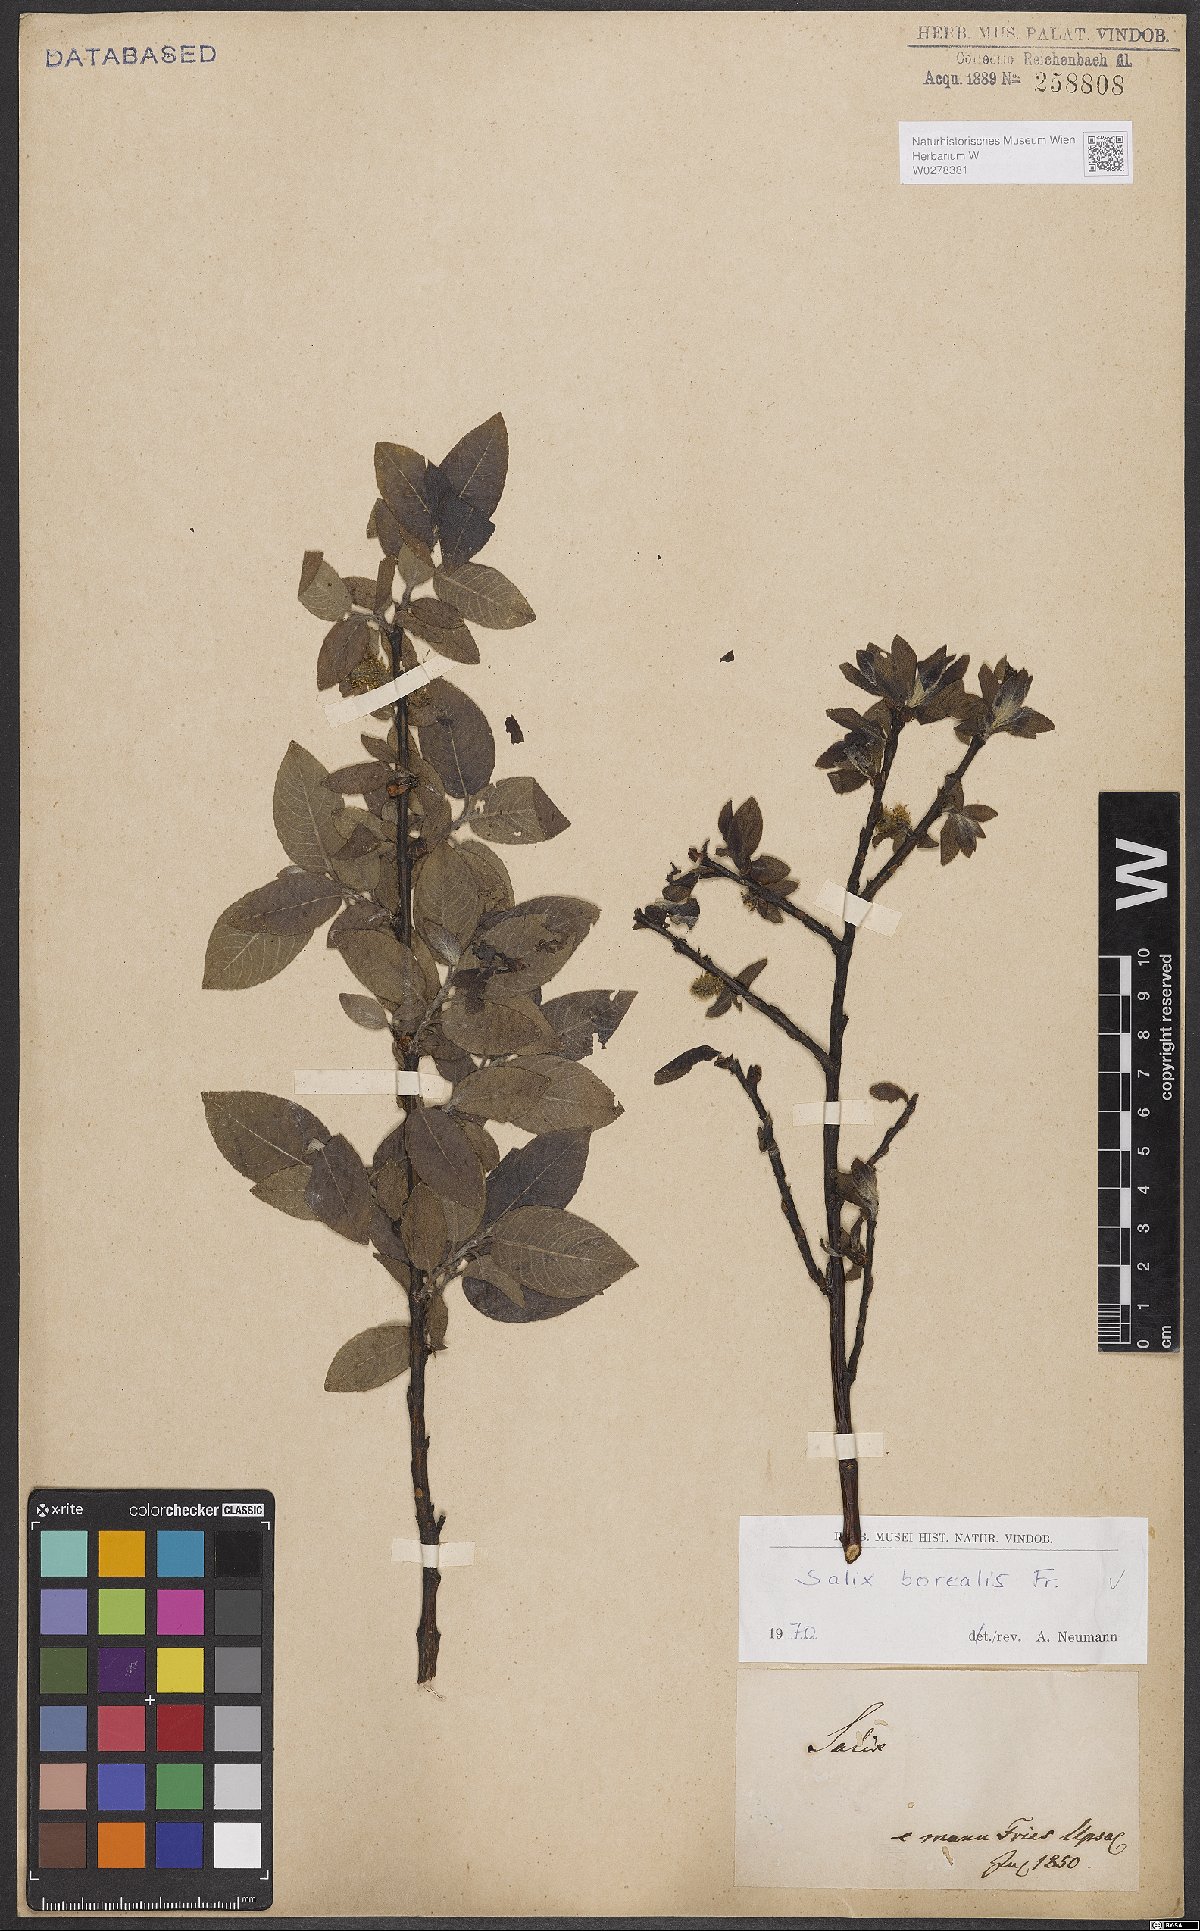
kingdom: Plantae
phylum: Tracheophyta
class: Magnoliopsida
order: Malpighiales
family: Salicaceae
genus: Salix
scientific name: Salix myrsinifolia
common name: Dark-leaved willow
